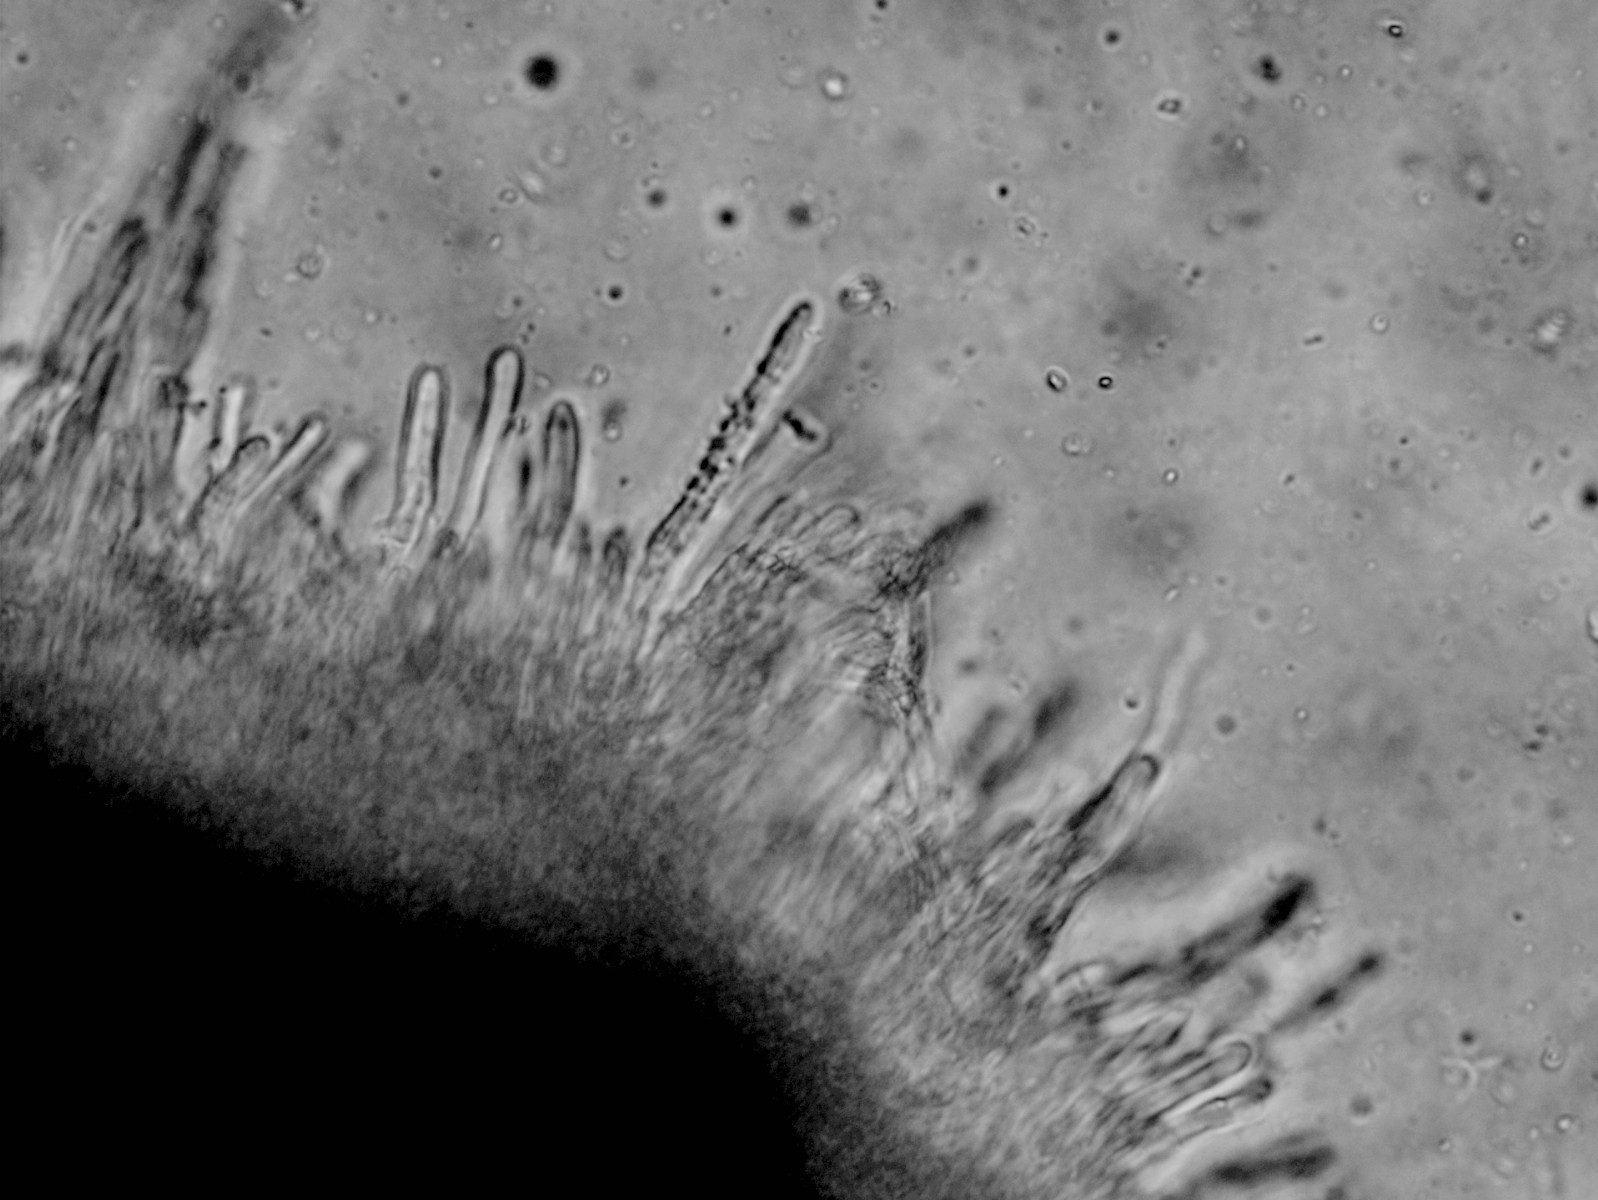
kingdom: Fungi
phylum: Basidiomycota
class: Agaricomycetes
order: Polyporales
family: Hyphodermataceae
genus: Hyphoderma
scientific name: Hyphoderma setigerum
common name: håret kalkskind
